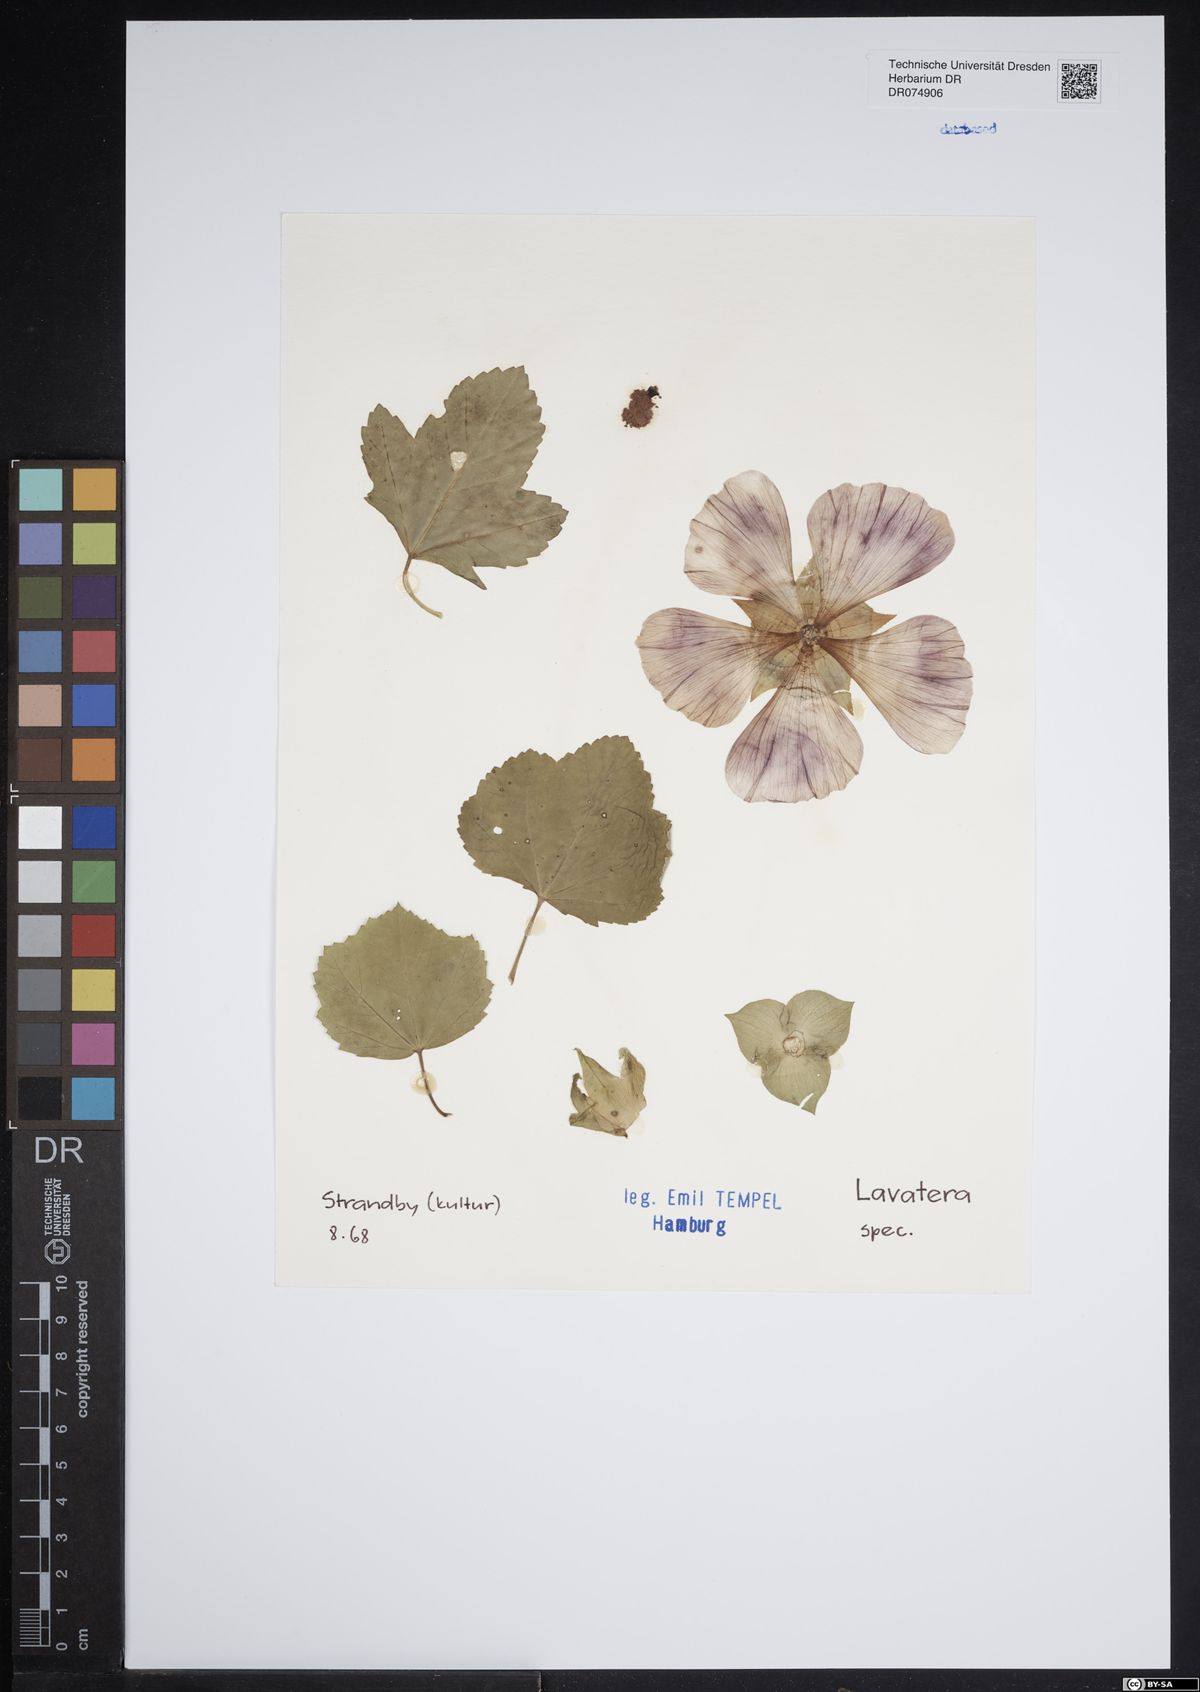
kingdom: Plantae
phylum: Tracheophyta
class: Magnoliopsida
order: Malvales
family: Malvaceae
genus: Malva
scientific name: Malva
